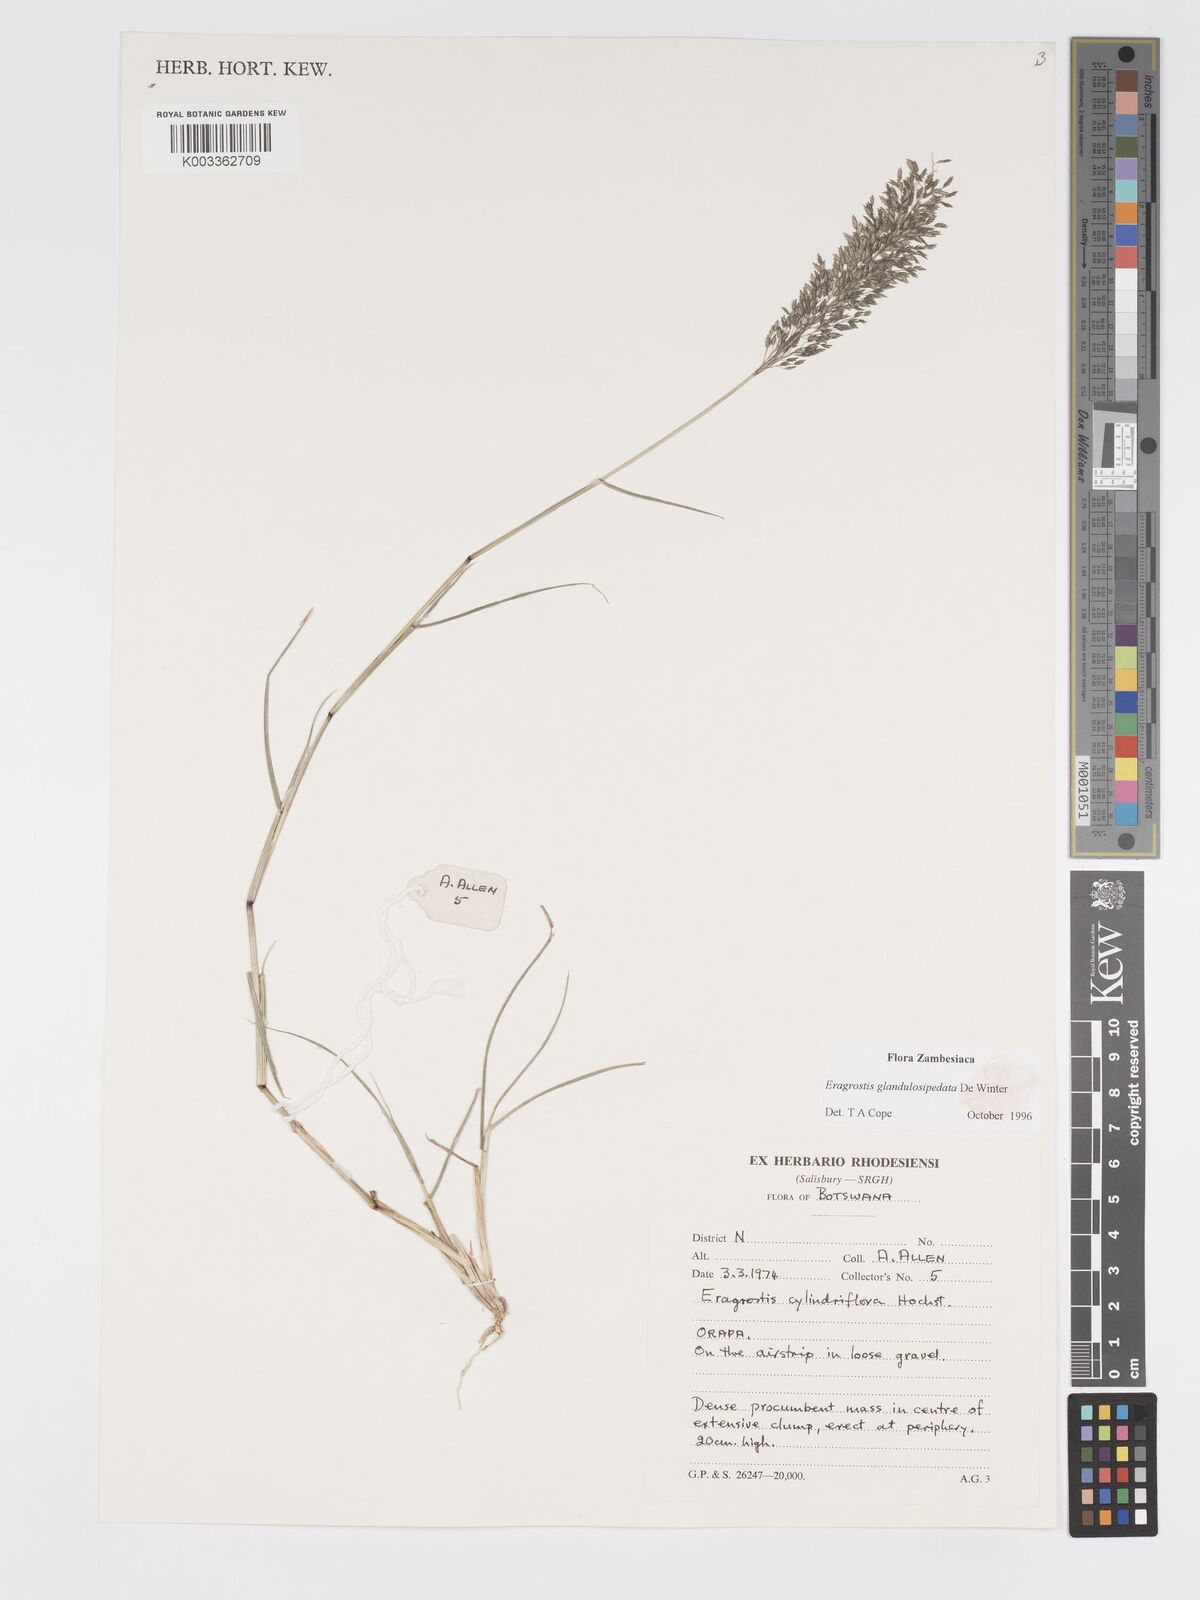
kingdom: Plantae
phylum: Tracheophyta
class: Liliopsida
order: Poales
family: Poaceae
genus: Eragrostis
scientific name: Eragrostis glandulosipedata
